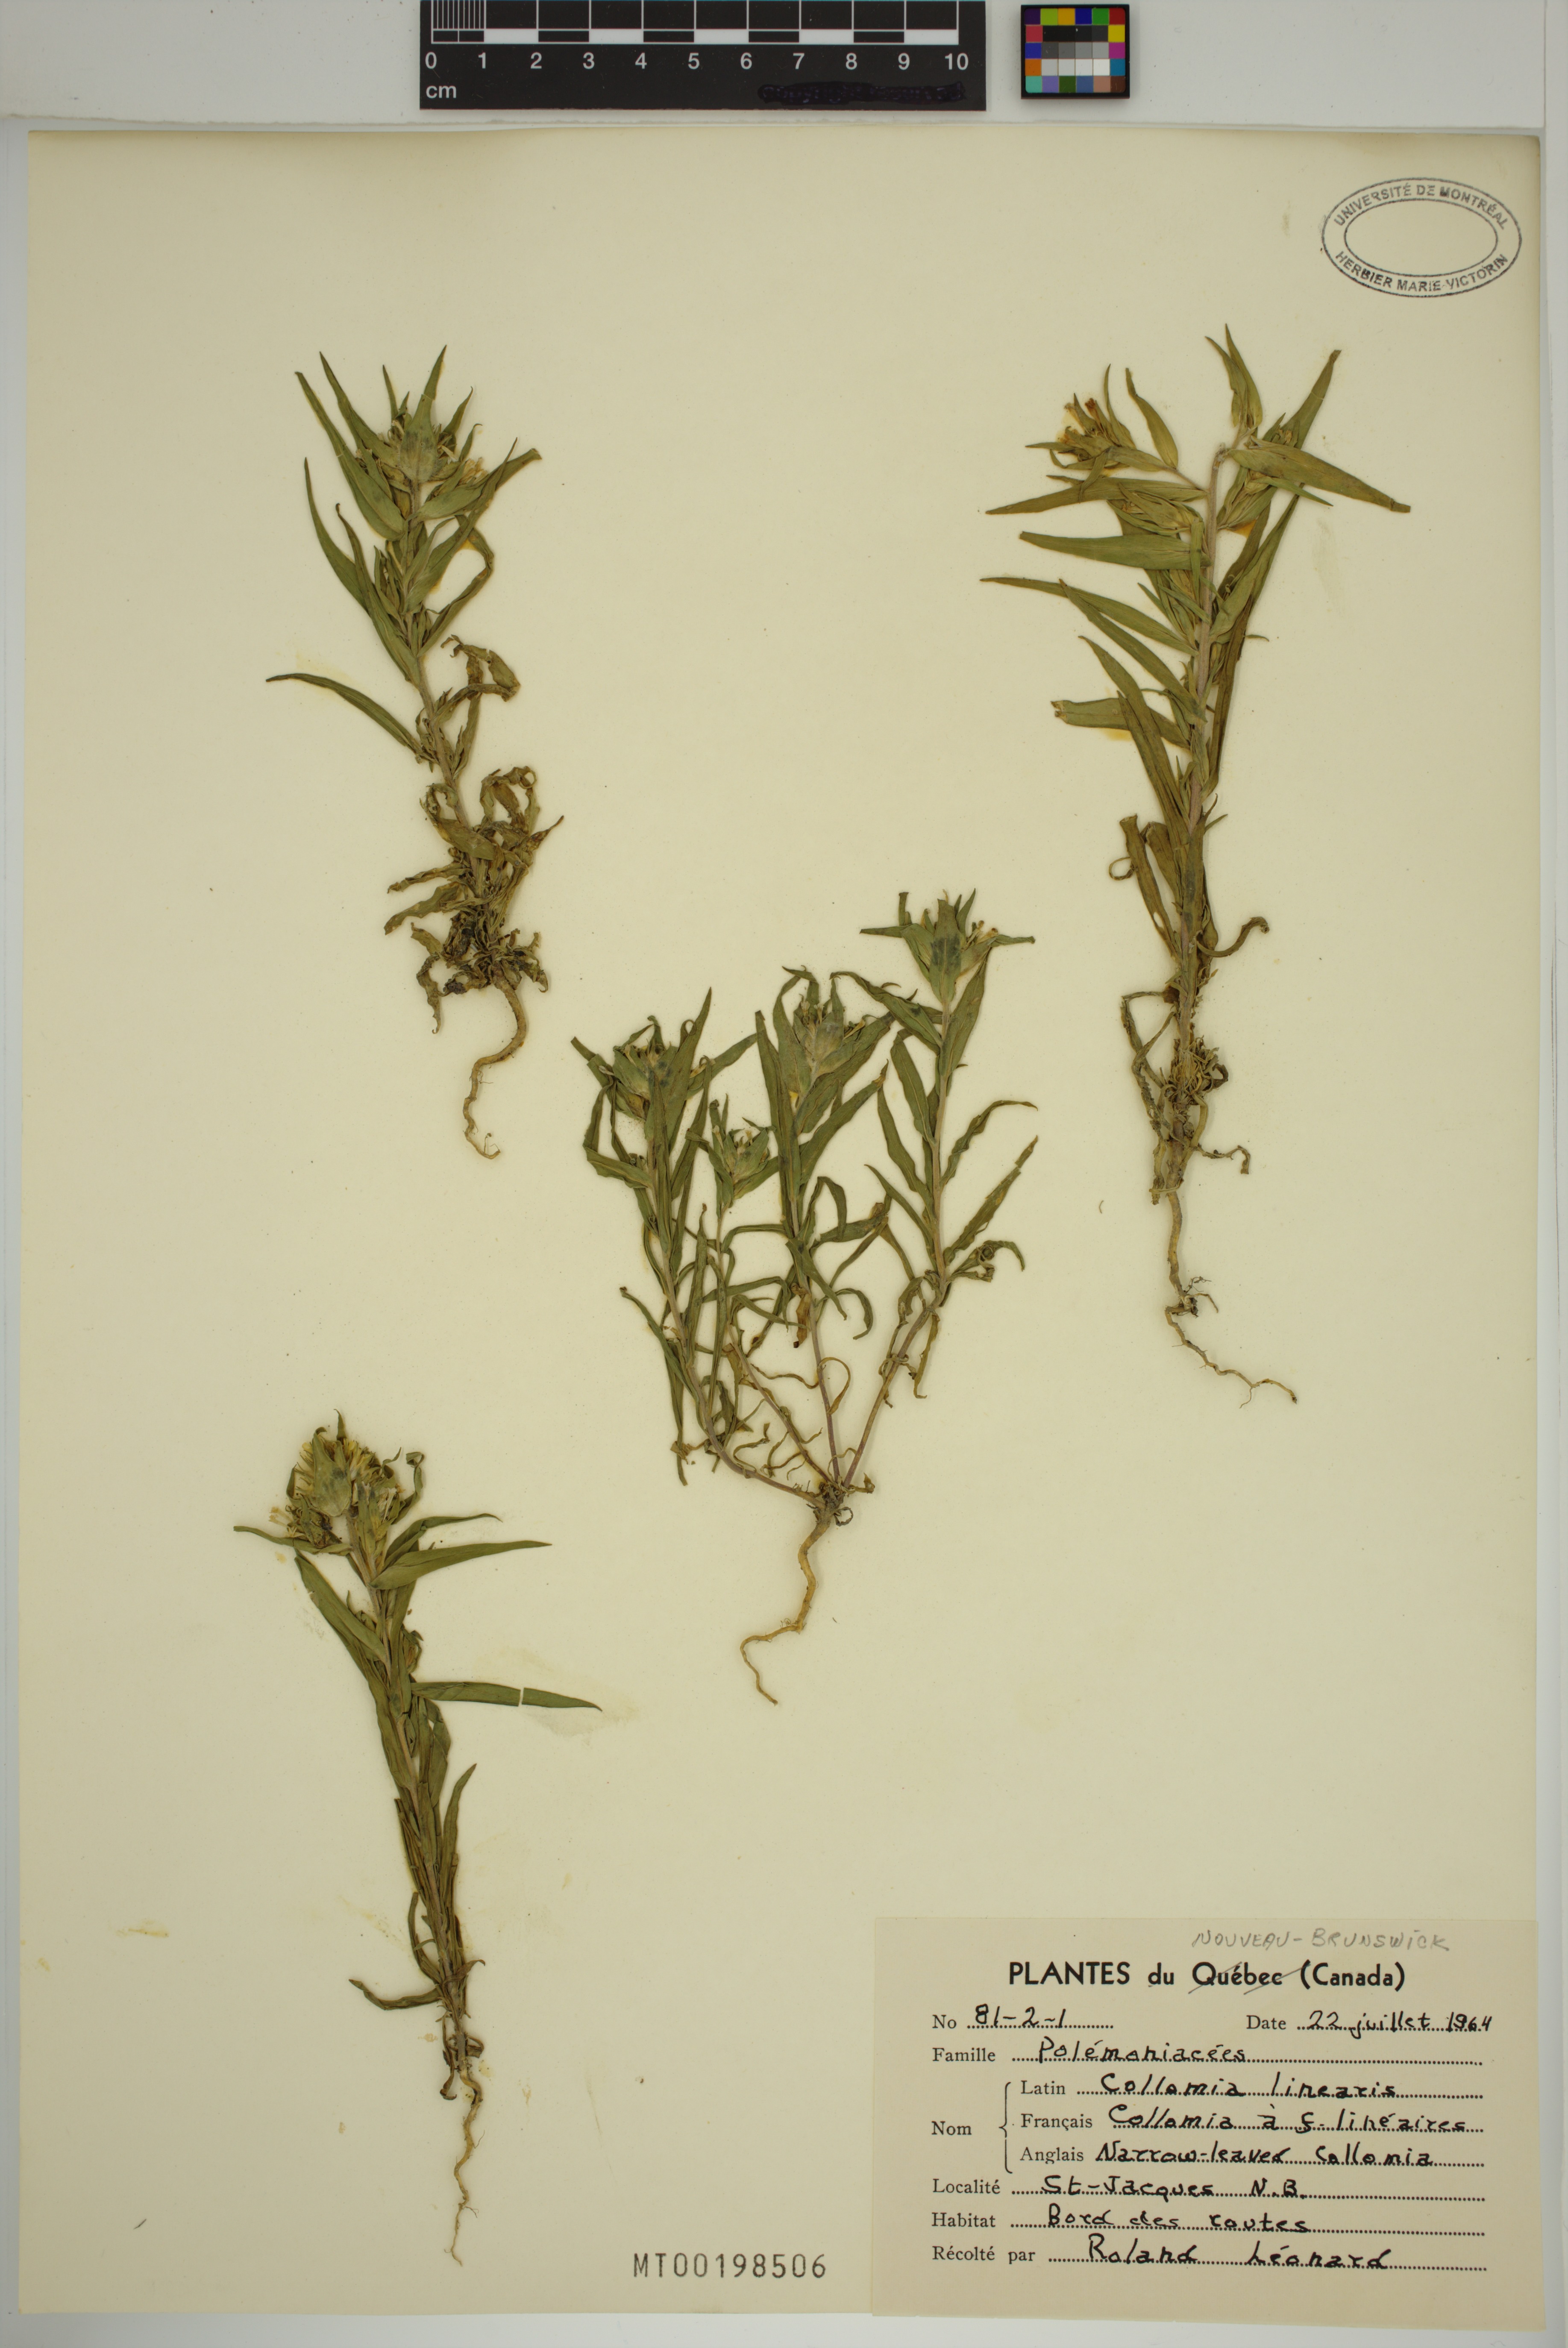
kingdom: Plantae
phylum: Tracheophyta
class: Magnoliopsida
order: Ericales
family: Polemoniaceae
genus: Collomia
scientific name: Collomia linearis
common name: Tiny trumpet
